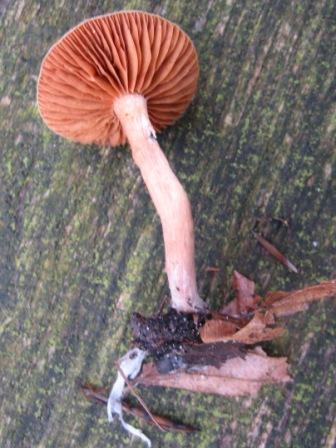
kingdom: Fungi
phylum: Basidiomycota
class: Agaricomycetes
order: Agaricales
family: Tubariaceae
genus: Tubaria
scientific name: Tubaria furfuracea
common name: kliddet fnughat
